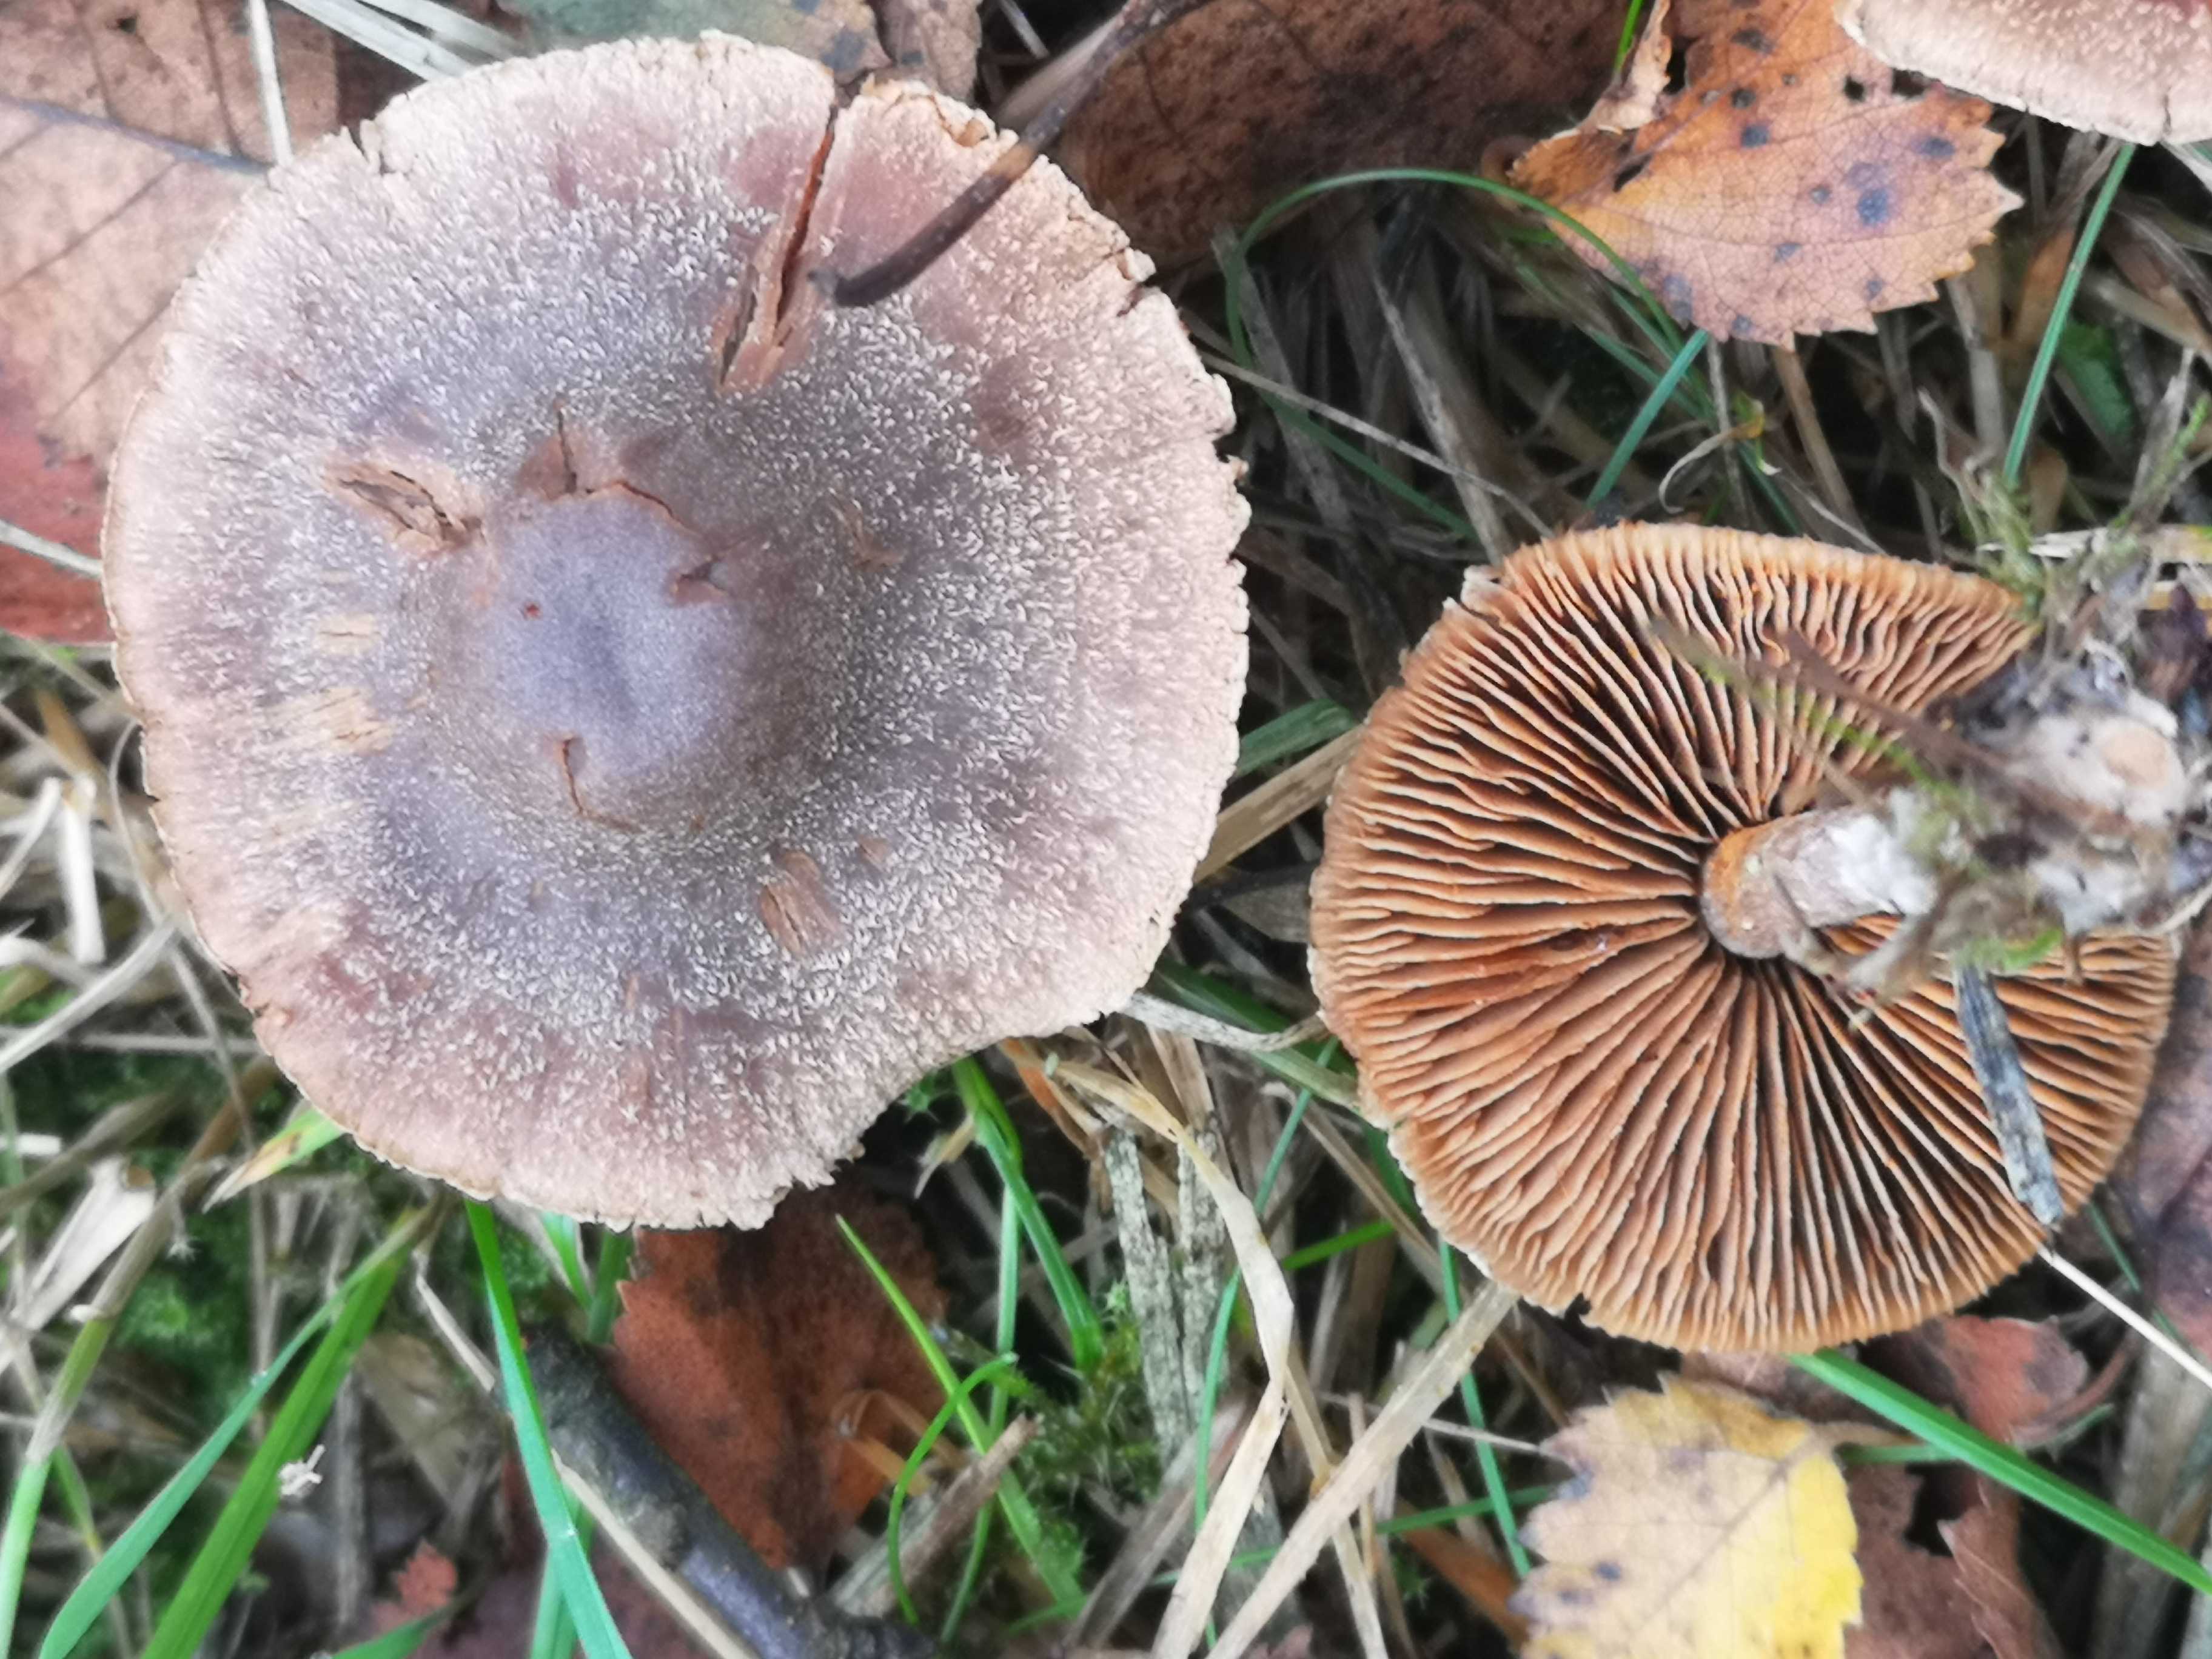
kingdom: Fungi
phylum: Basidiomycota
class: Agaricomycetes
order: Agaricales
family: Cortinariaceae
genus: Cortinarius
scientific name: Cortinarius
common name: pelargonie-slørhat
